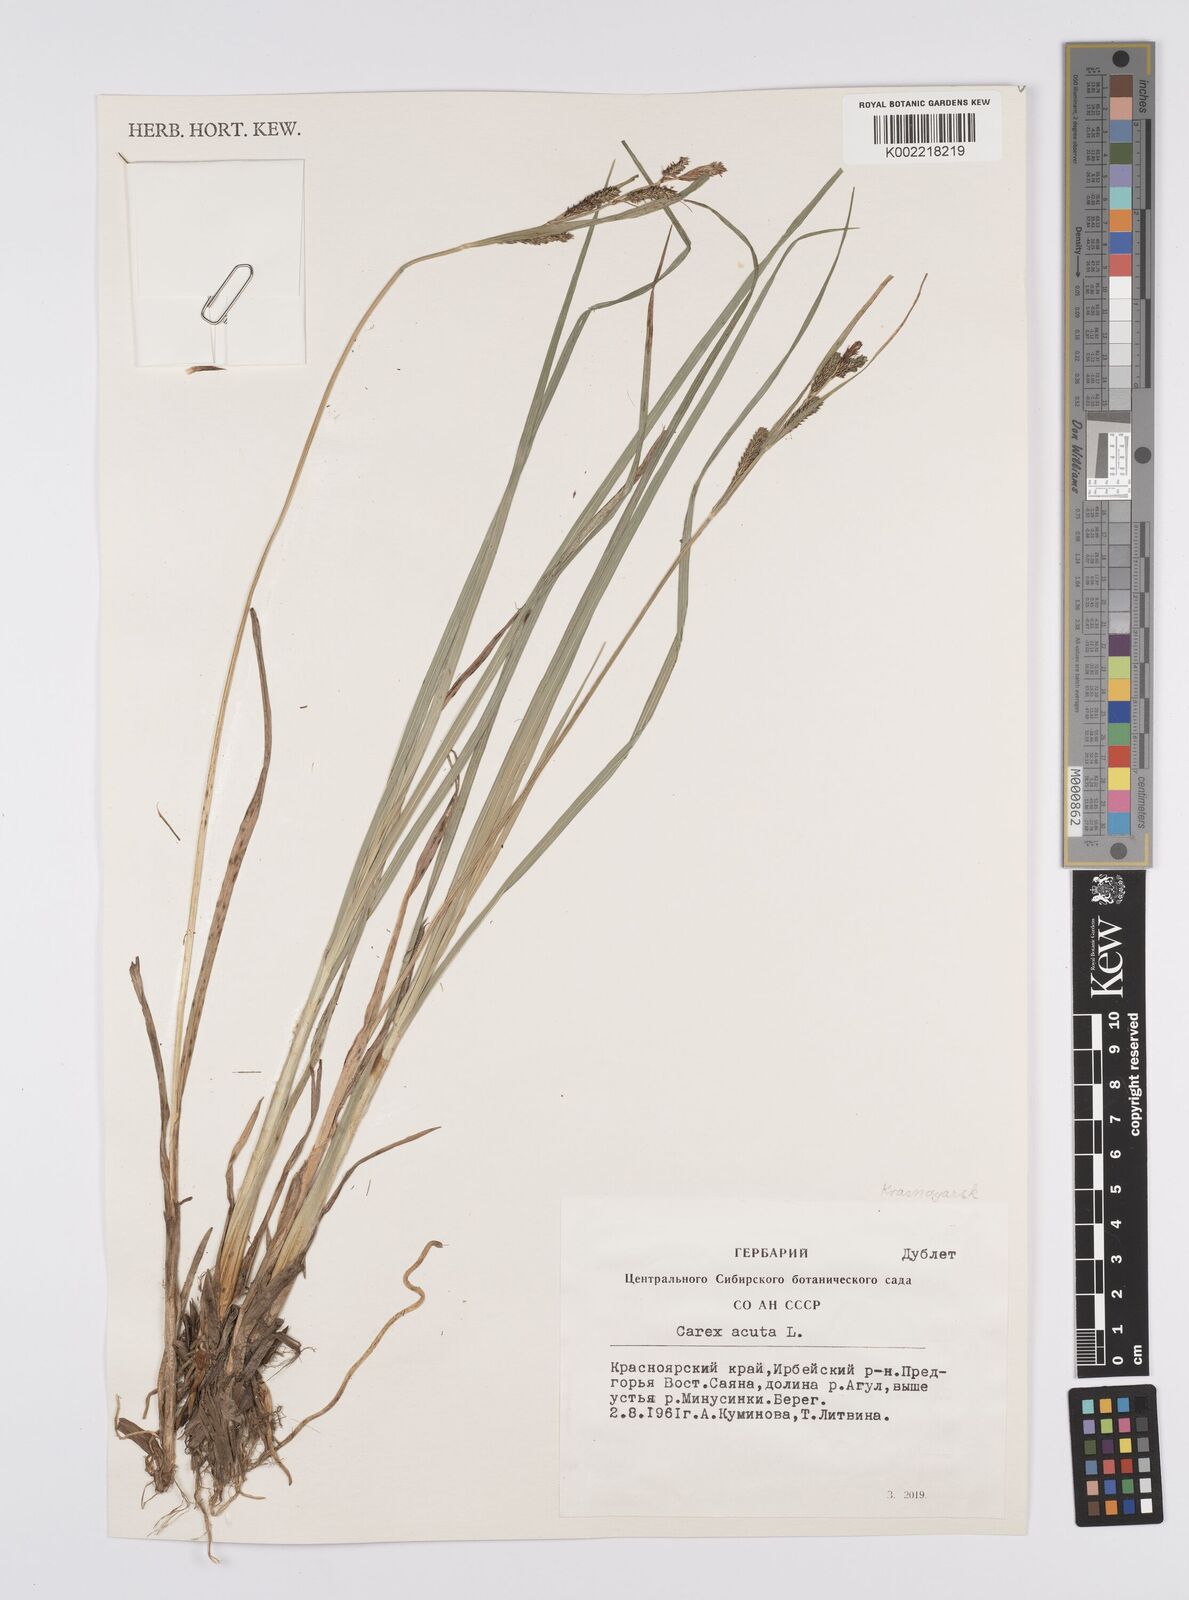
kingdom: Plantae
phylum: Tracheophyta
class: Liliopsida
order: Poales
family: Cyperaceae
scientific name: Cyperaceae
